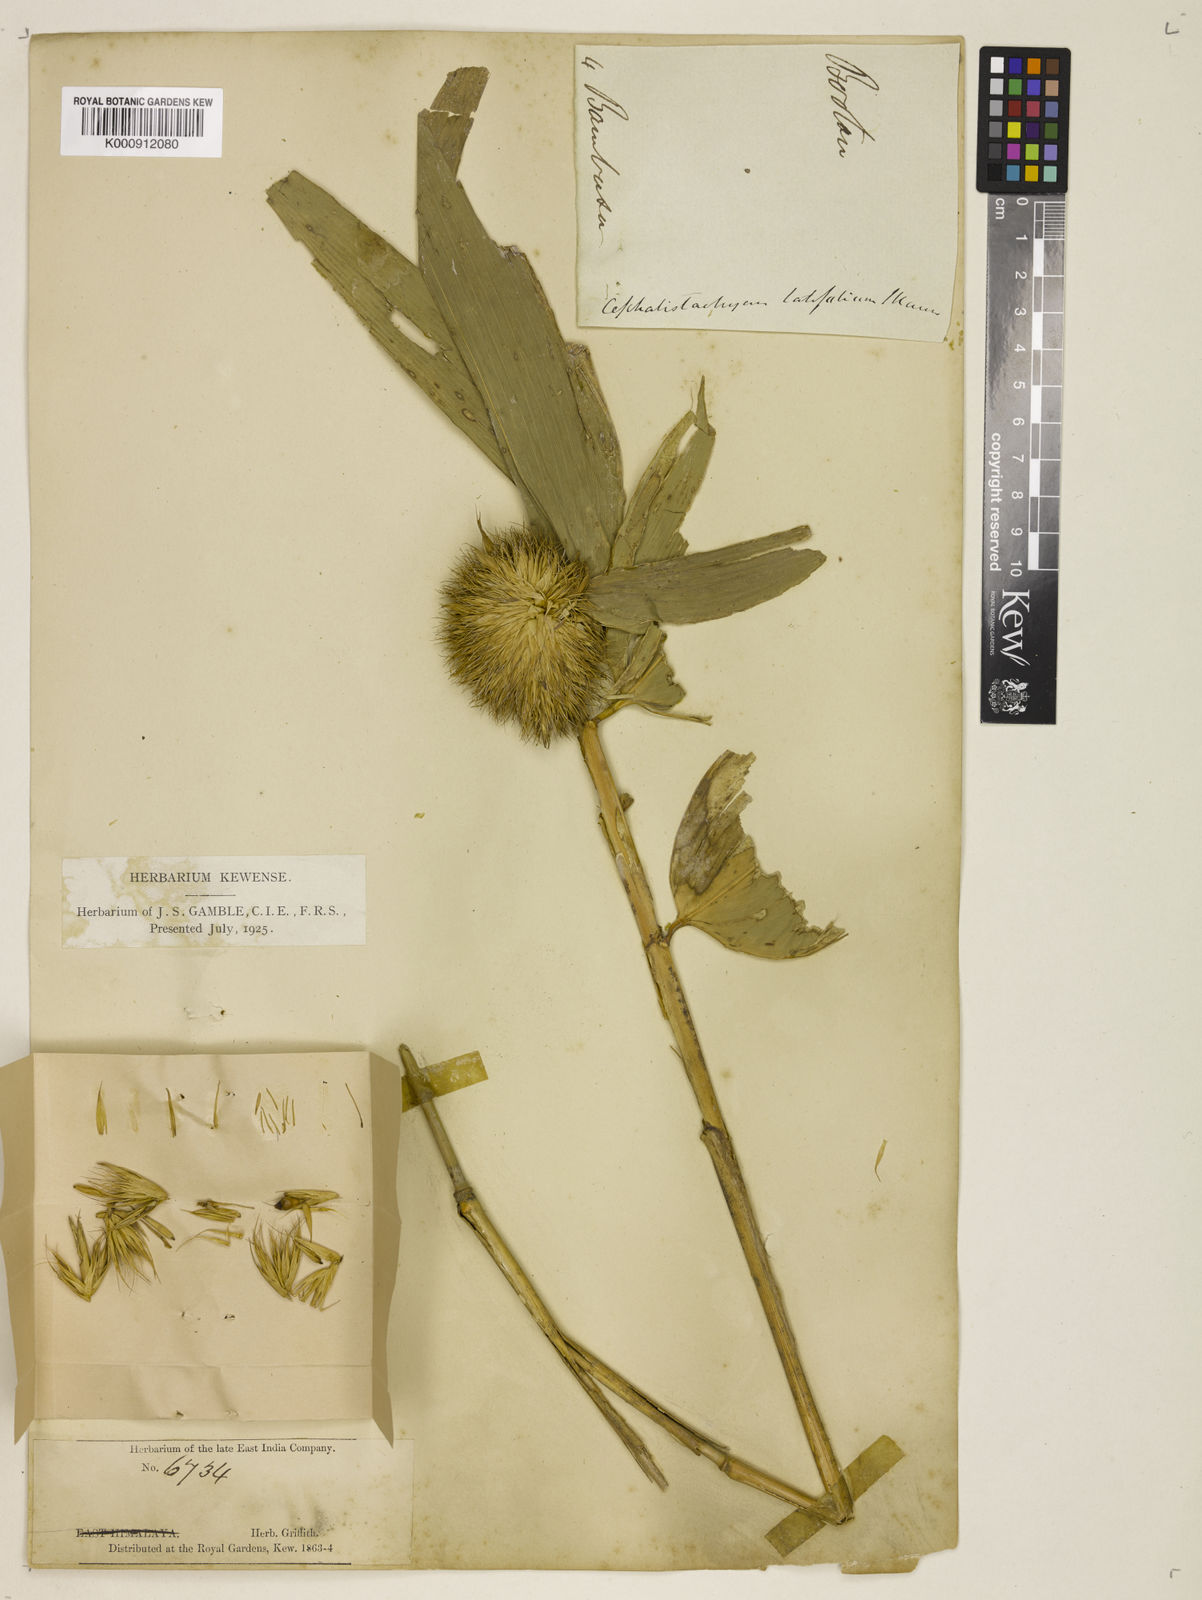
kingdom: Plantae
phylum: Tracheophyta
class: Liliopsida
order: Poales
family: Poaceae
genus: Cephalostachyum
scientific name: Cephalostachyum latifolium
